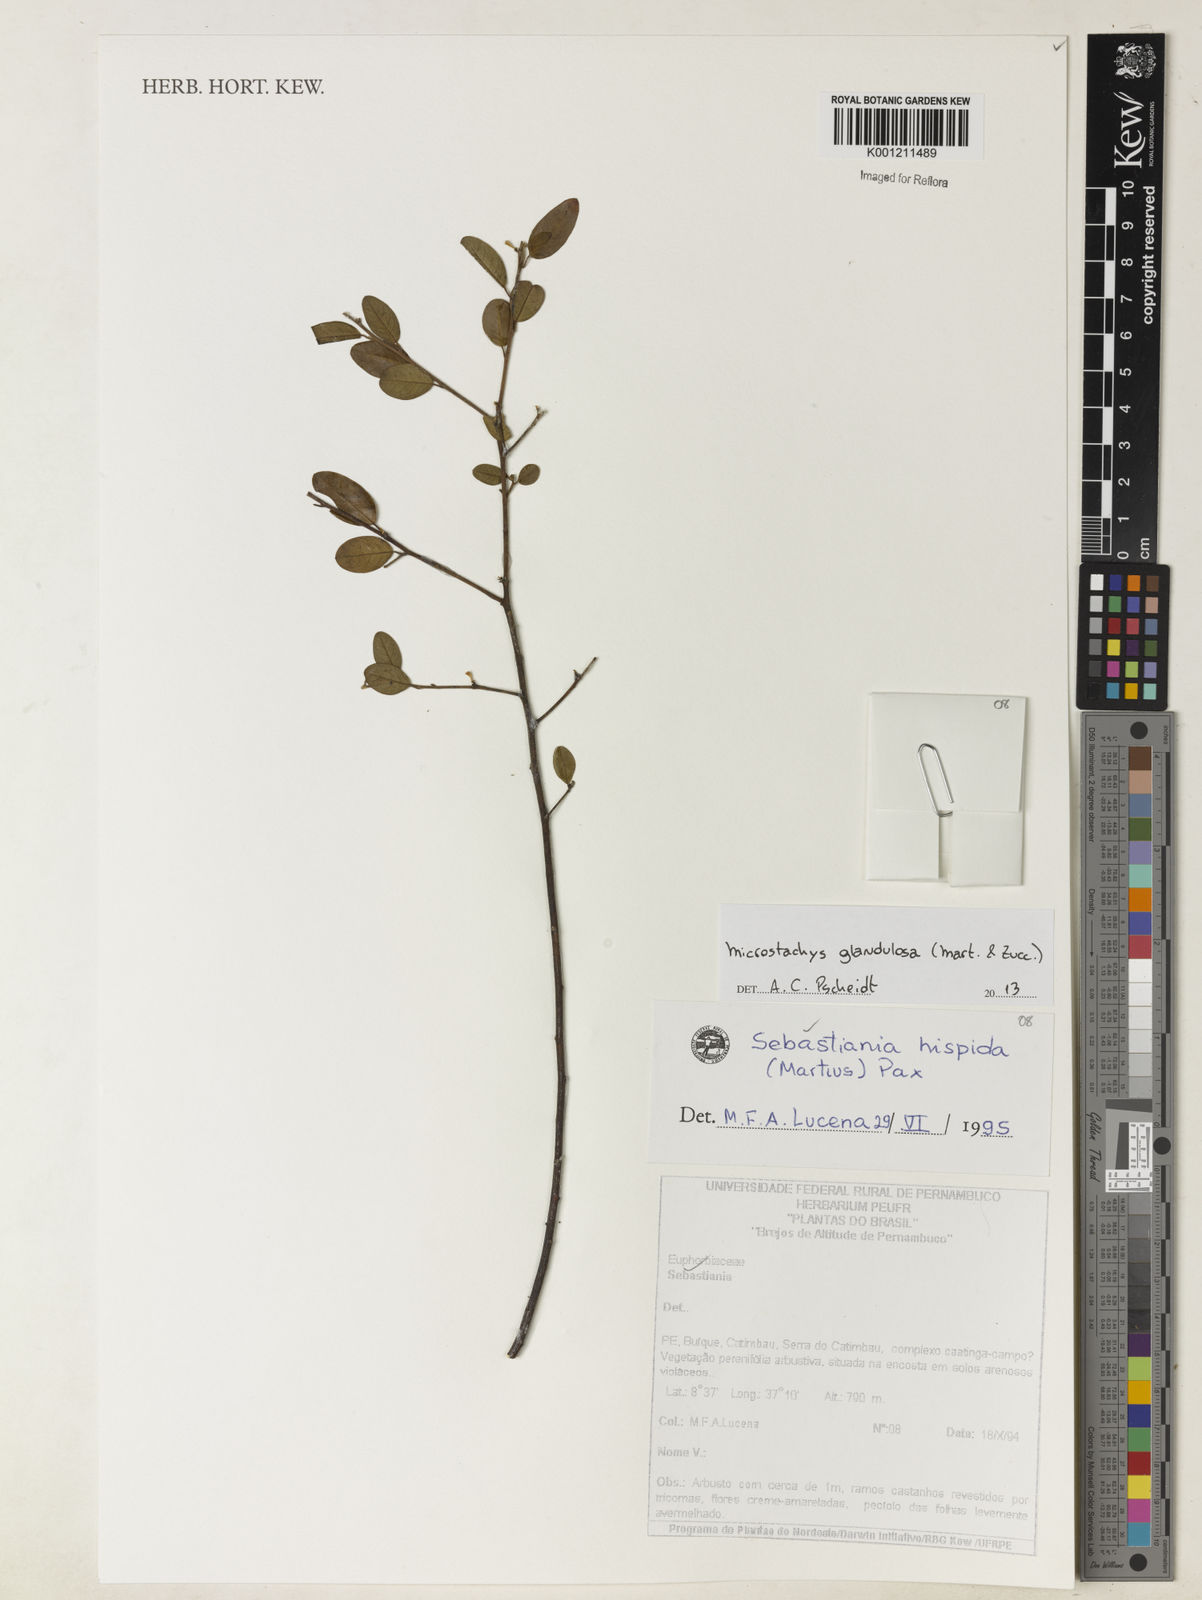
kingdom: Plantae
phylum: Tracheophyta
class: Magnoliopsida
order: Malpighiales
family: Euphorbiaceae
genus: Microstachys
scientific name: Microstachys glandulosa
